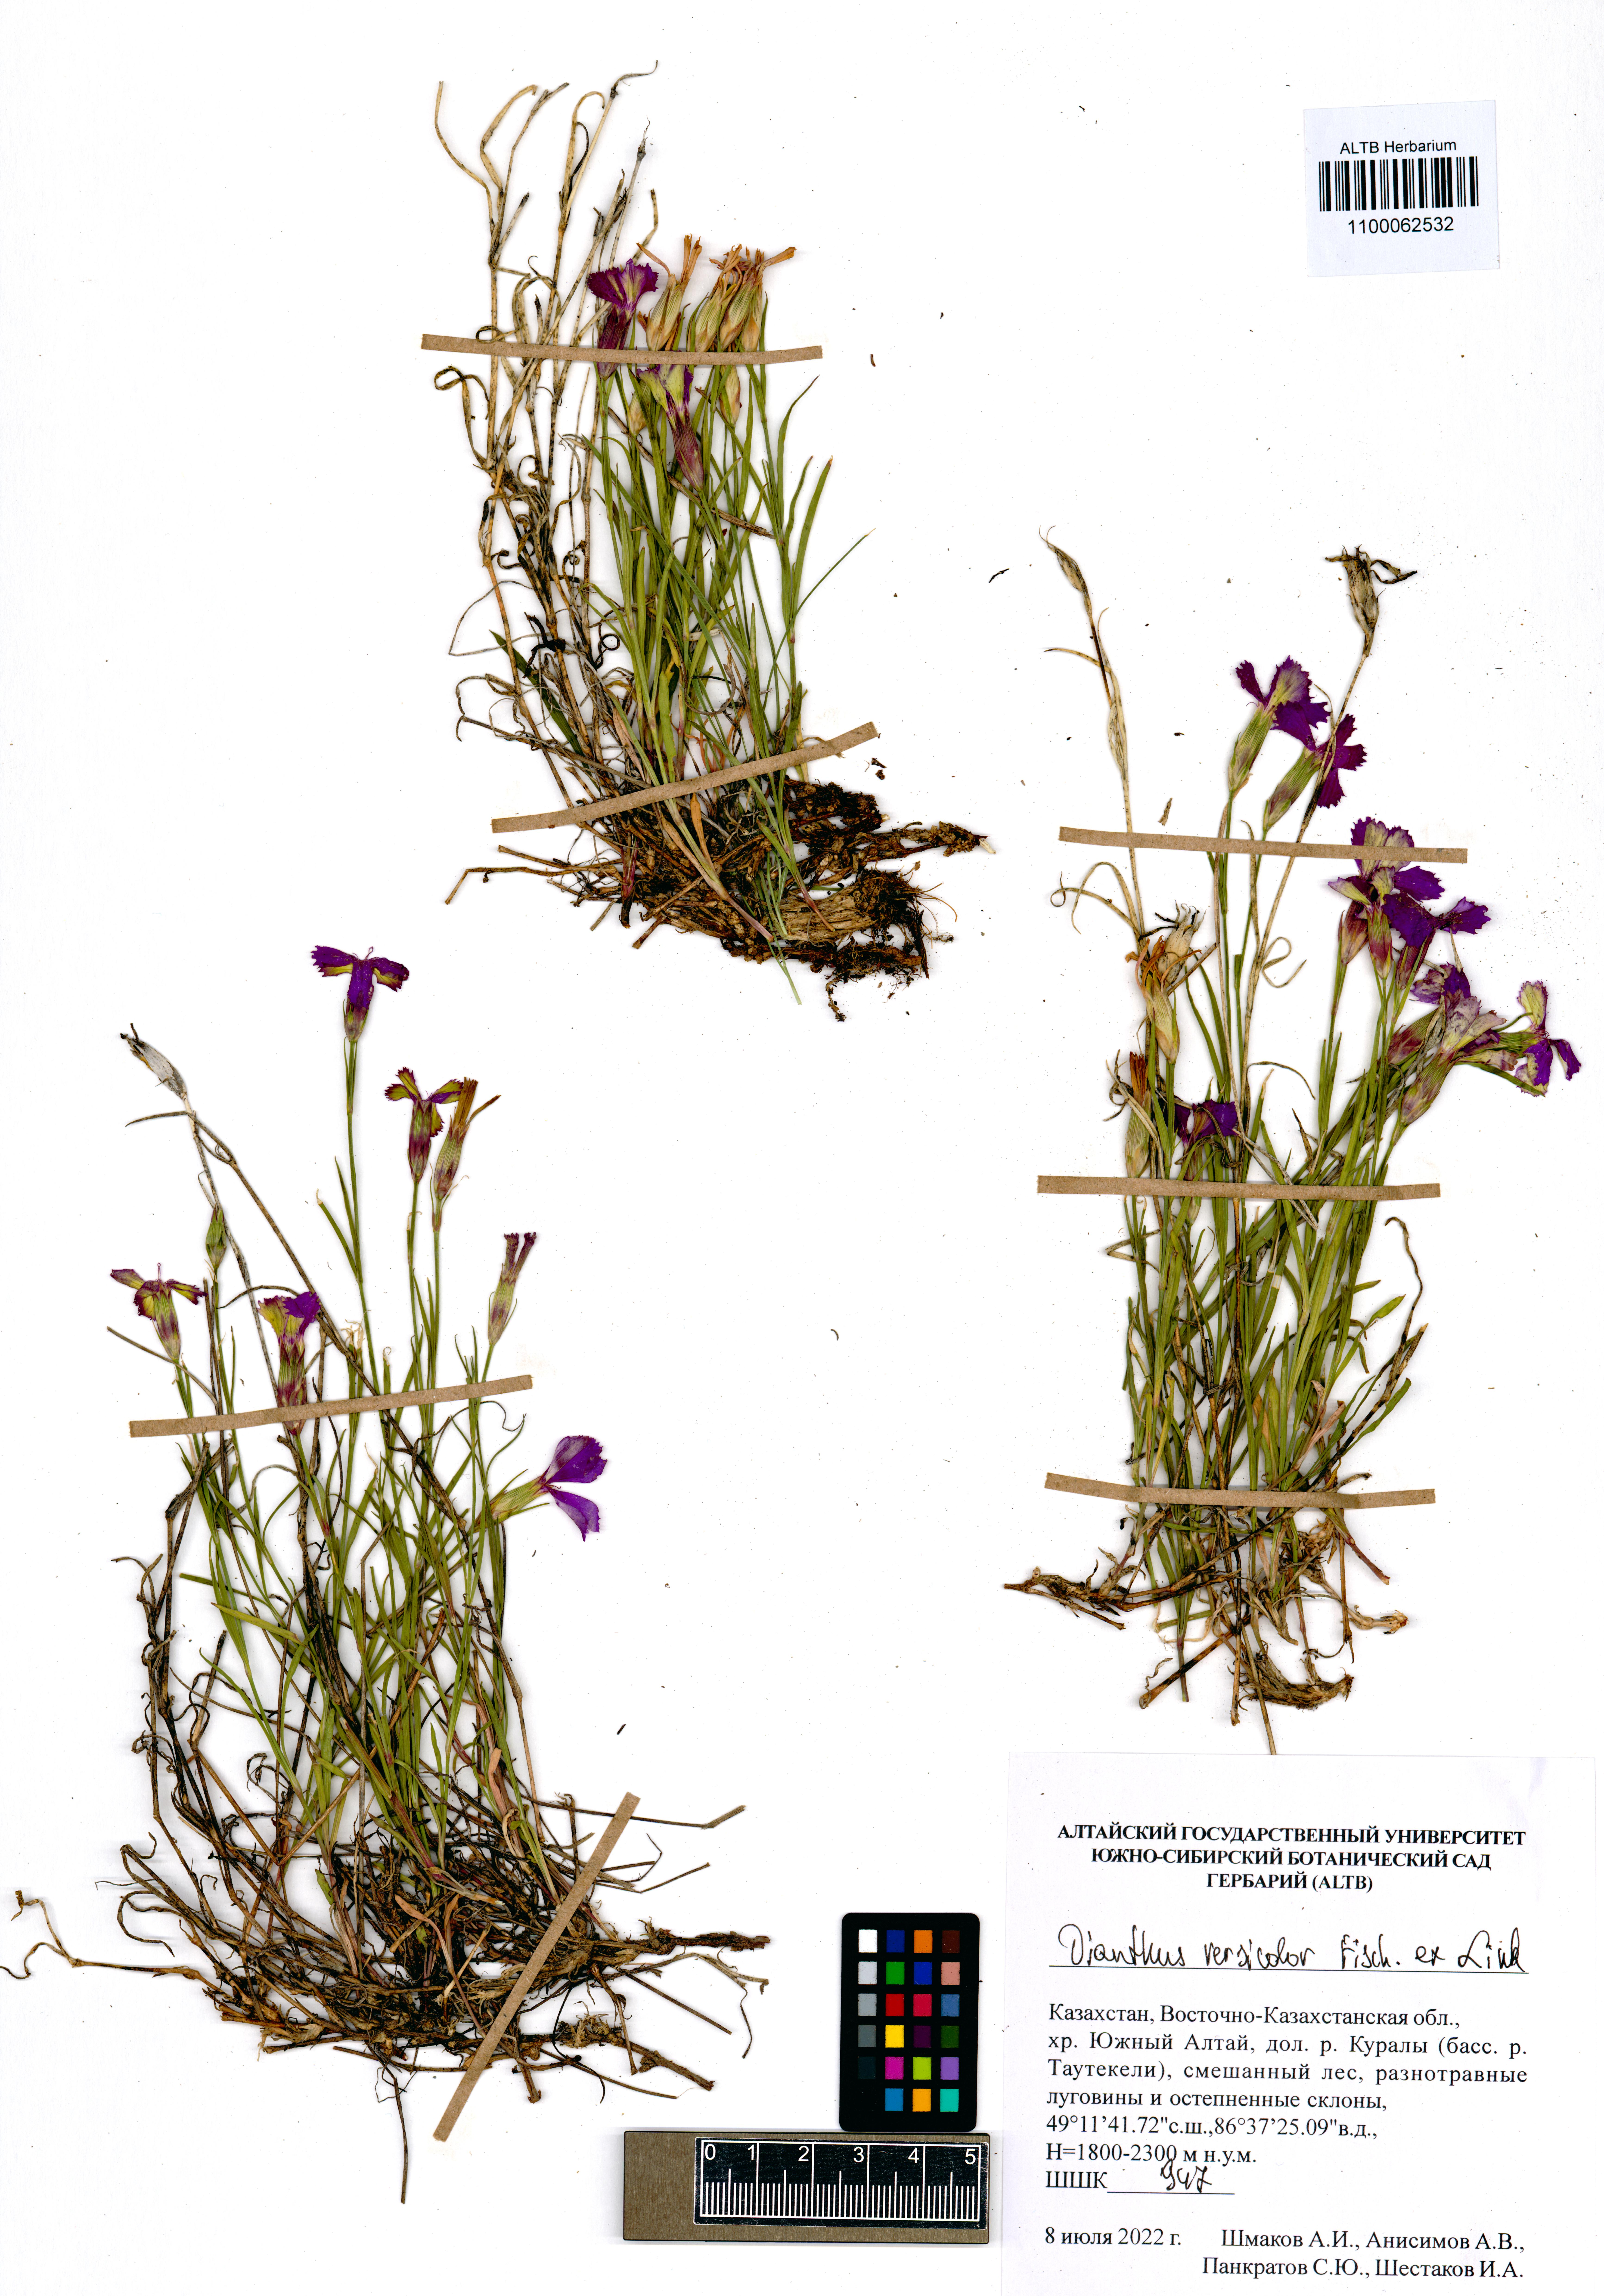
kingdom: Plantae
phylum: Tracheophyta
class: Magnoliopsida
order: Caryophyllales
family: Caryophyllaceae
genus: Dianthus
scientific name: Dianthus chinensis
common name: Rainbow pink
